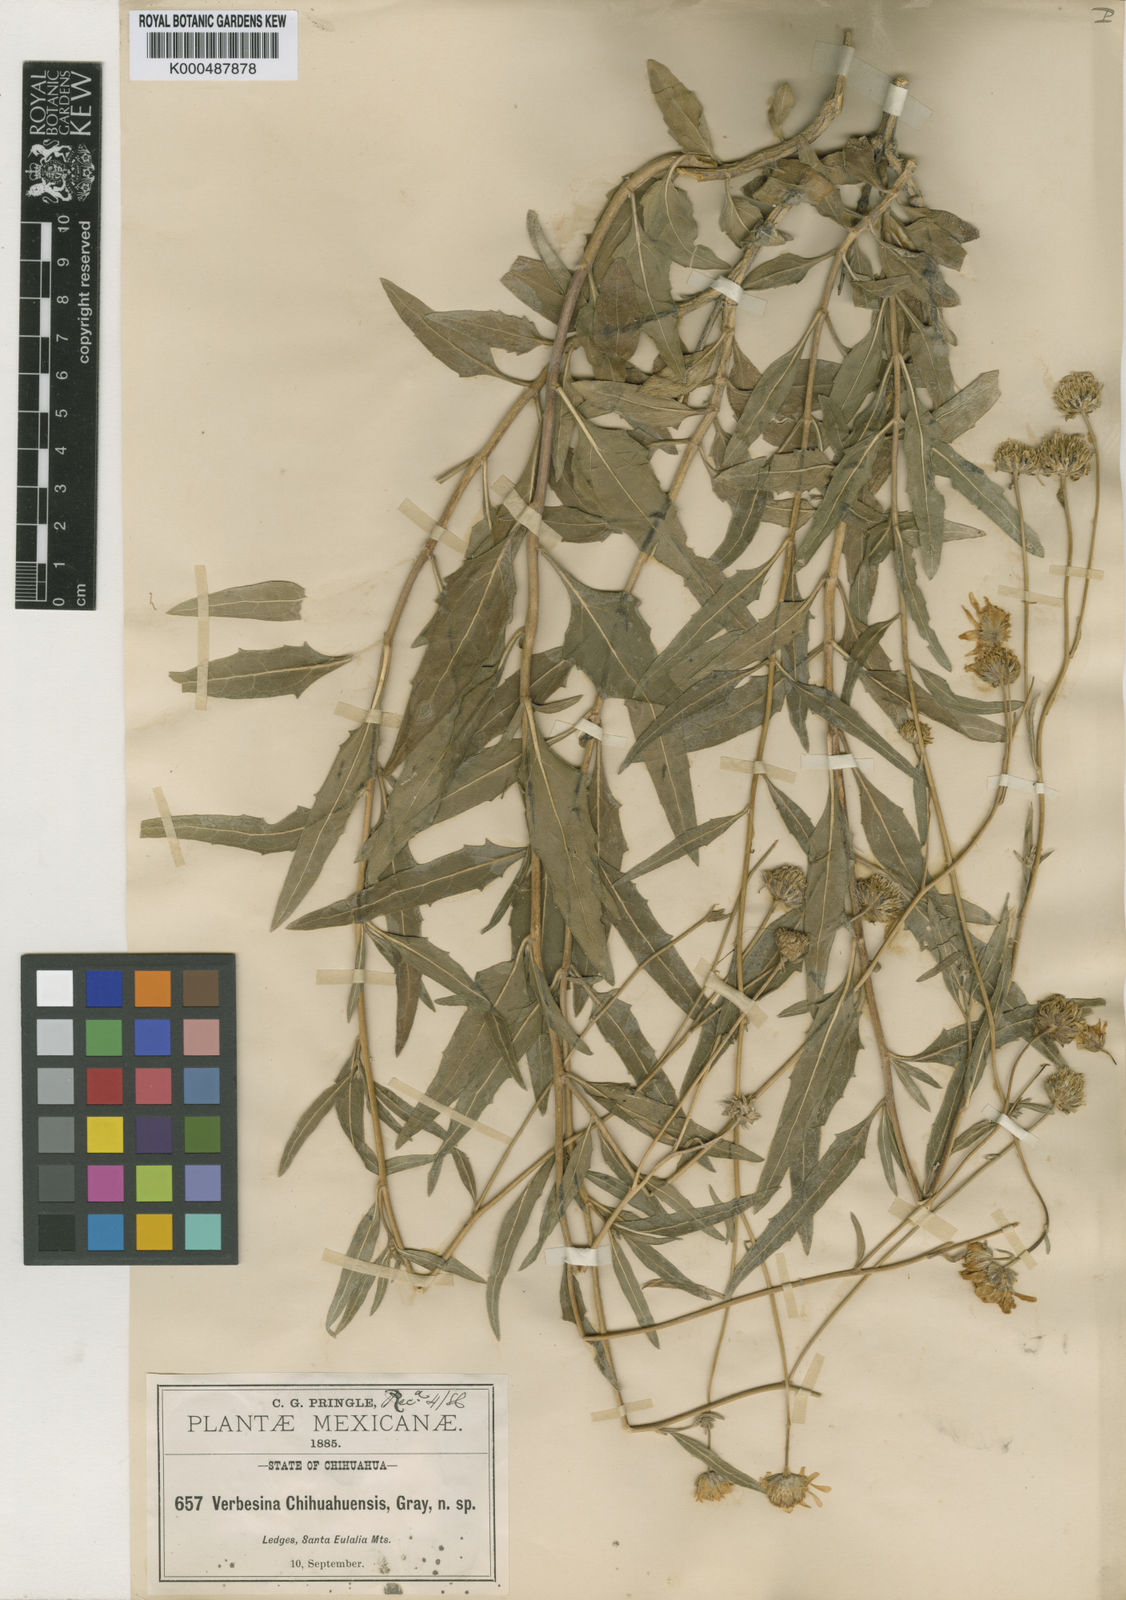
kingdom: Plantae
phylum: Tracheophyta
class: Magnoliopsida
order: Asterales
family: Asteraceae
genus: Verbesina
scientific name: Verbesina chihuahuensis
